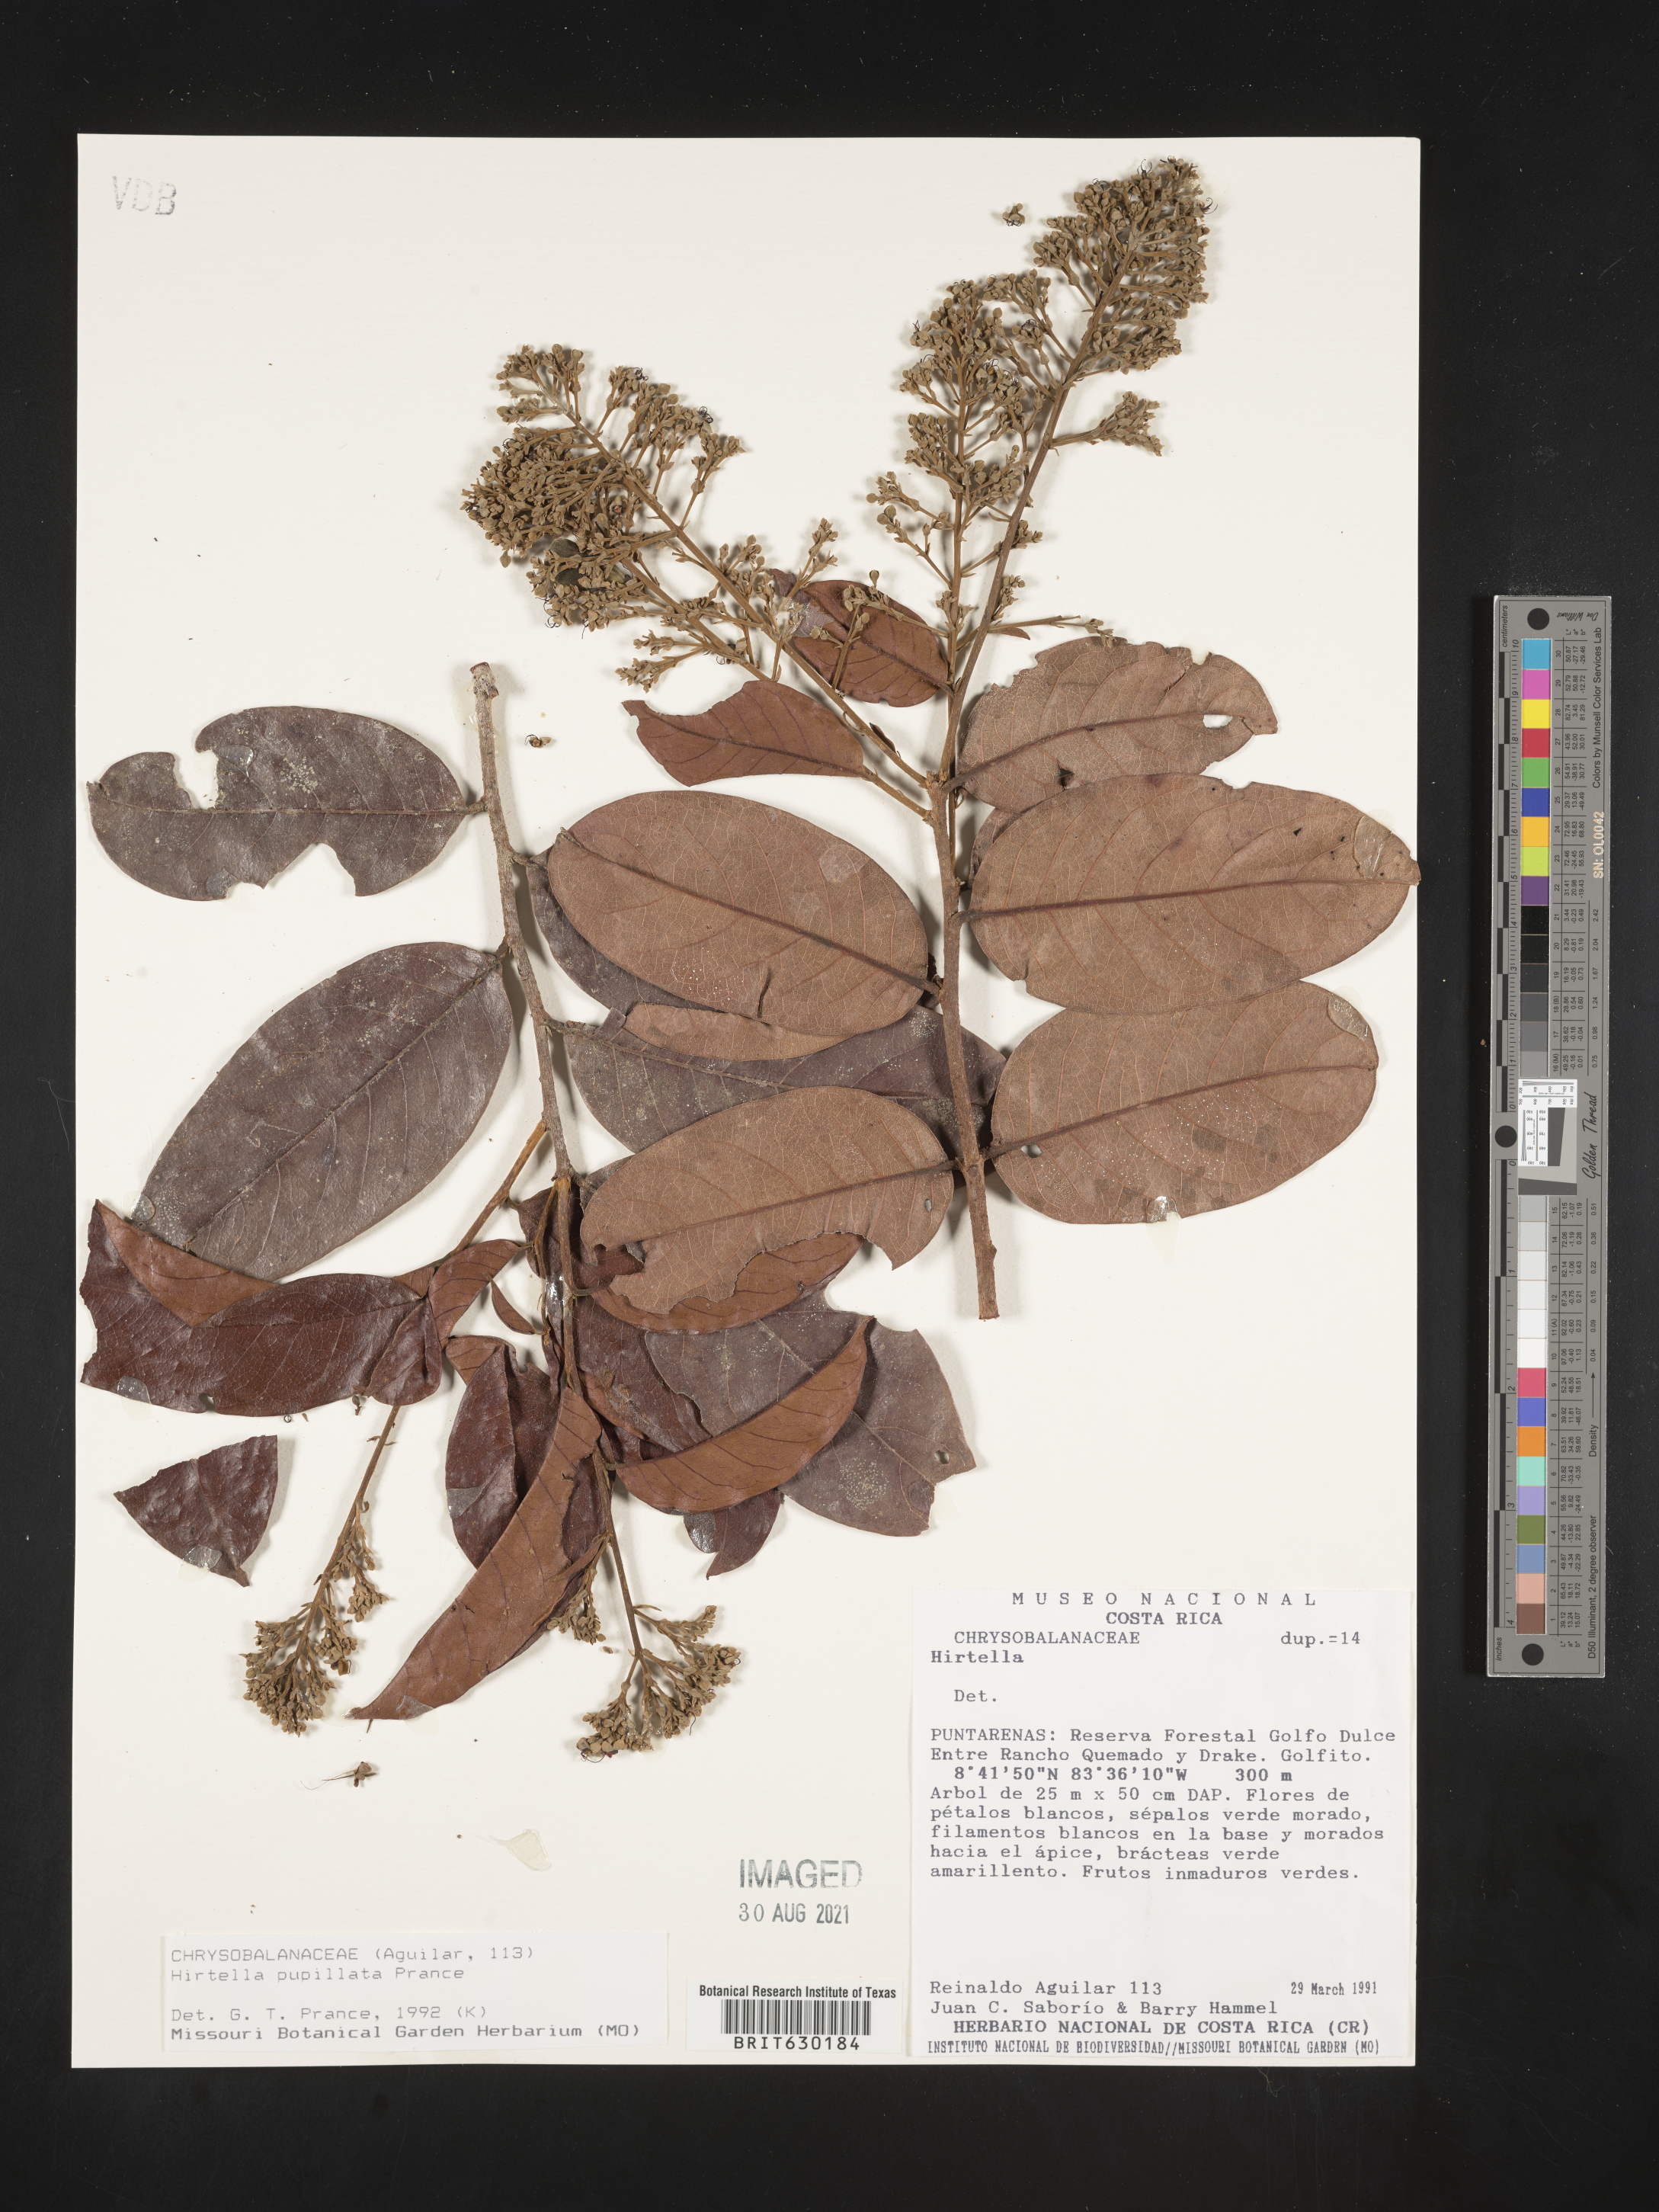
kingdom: Plantae
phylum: Tracheophyta
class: Magnoliopsida
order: Malpighiales
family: Chrysobalanaceae
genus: Hirtella
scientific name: Hirtella papillata
